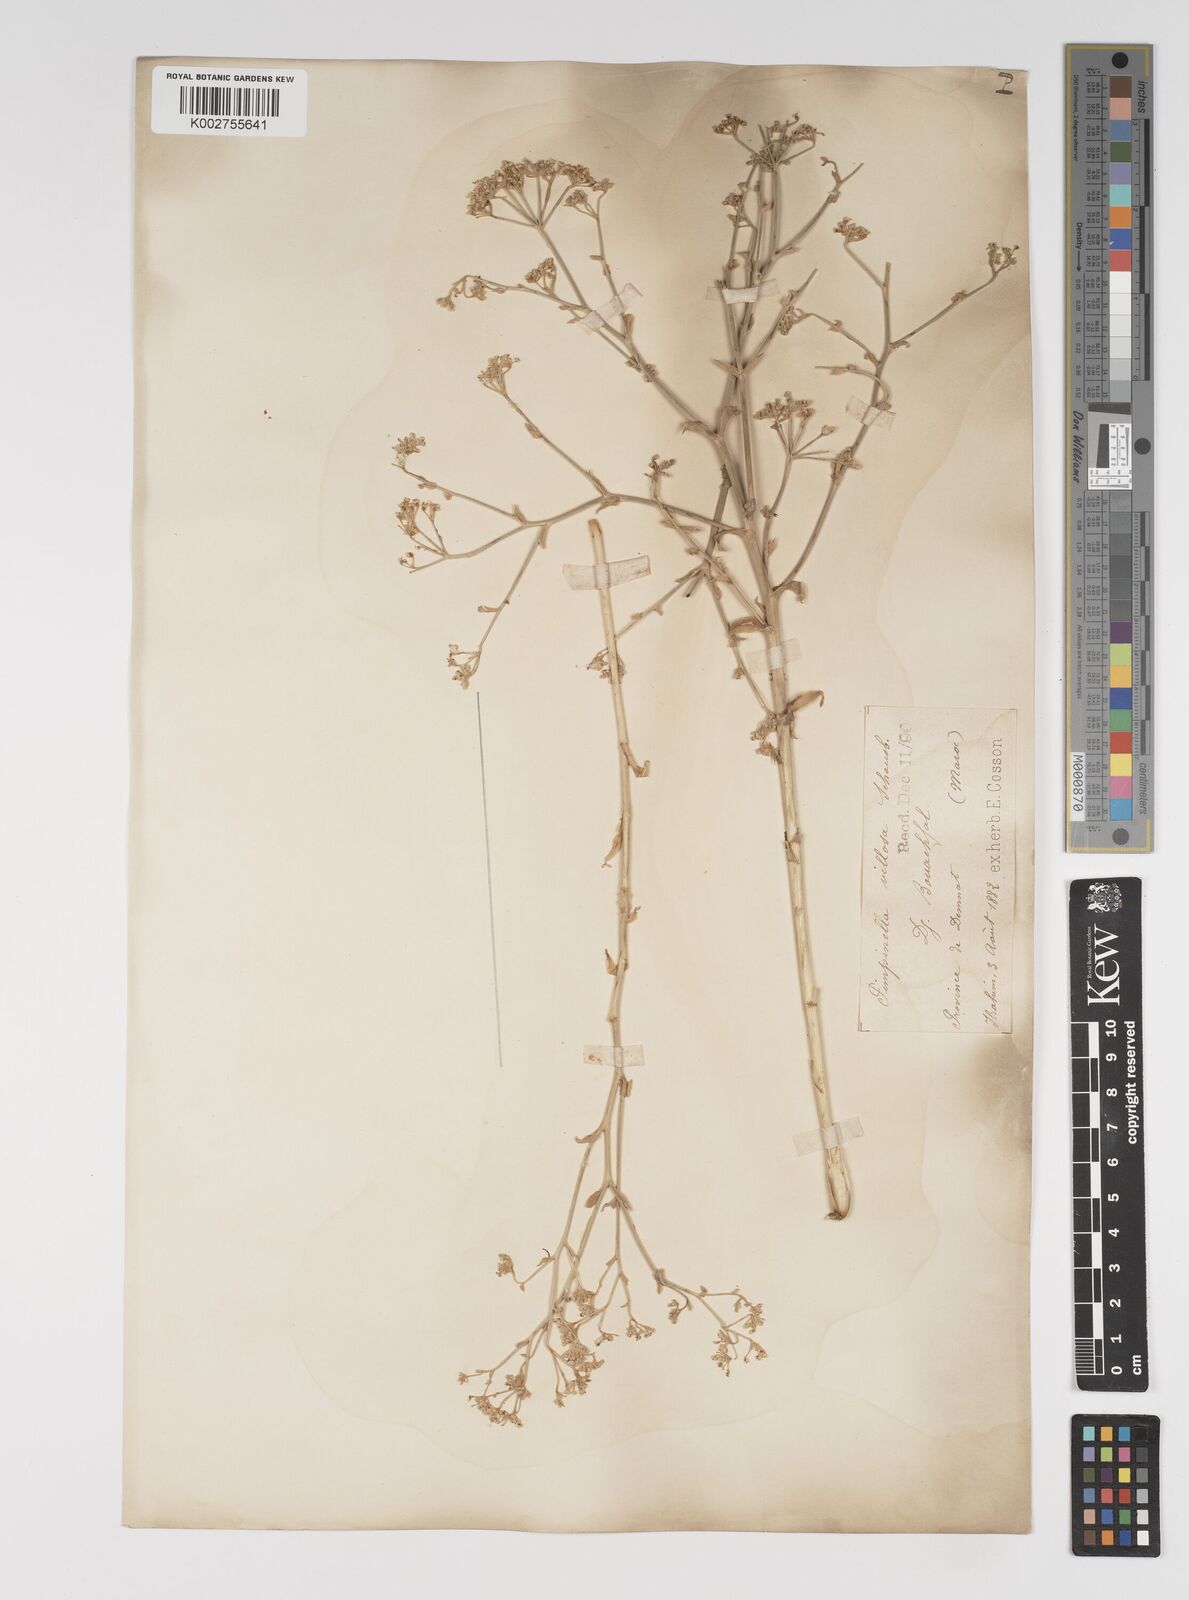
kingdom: Plantae
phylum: Tracheophyta
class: Magnoliopsida
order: Apiales
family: Apiaceae
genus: Pimpinella
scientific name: Pimpinella villosa
